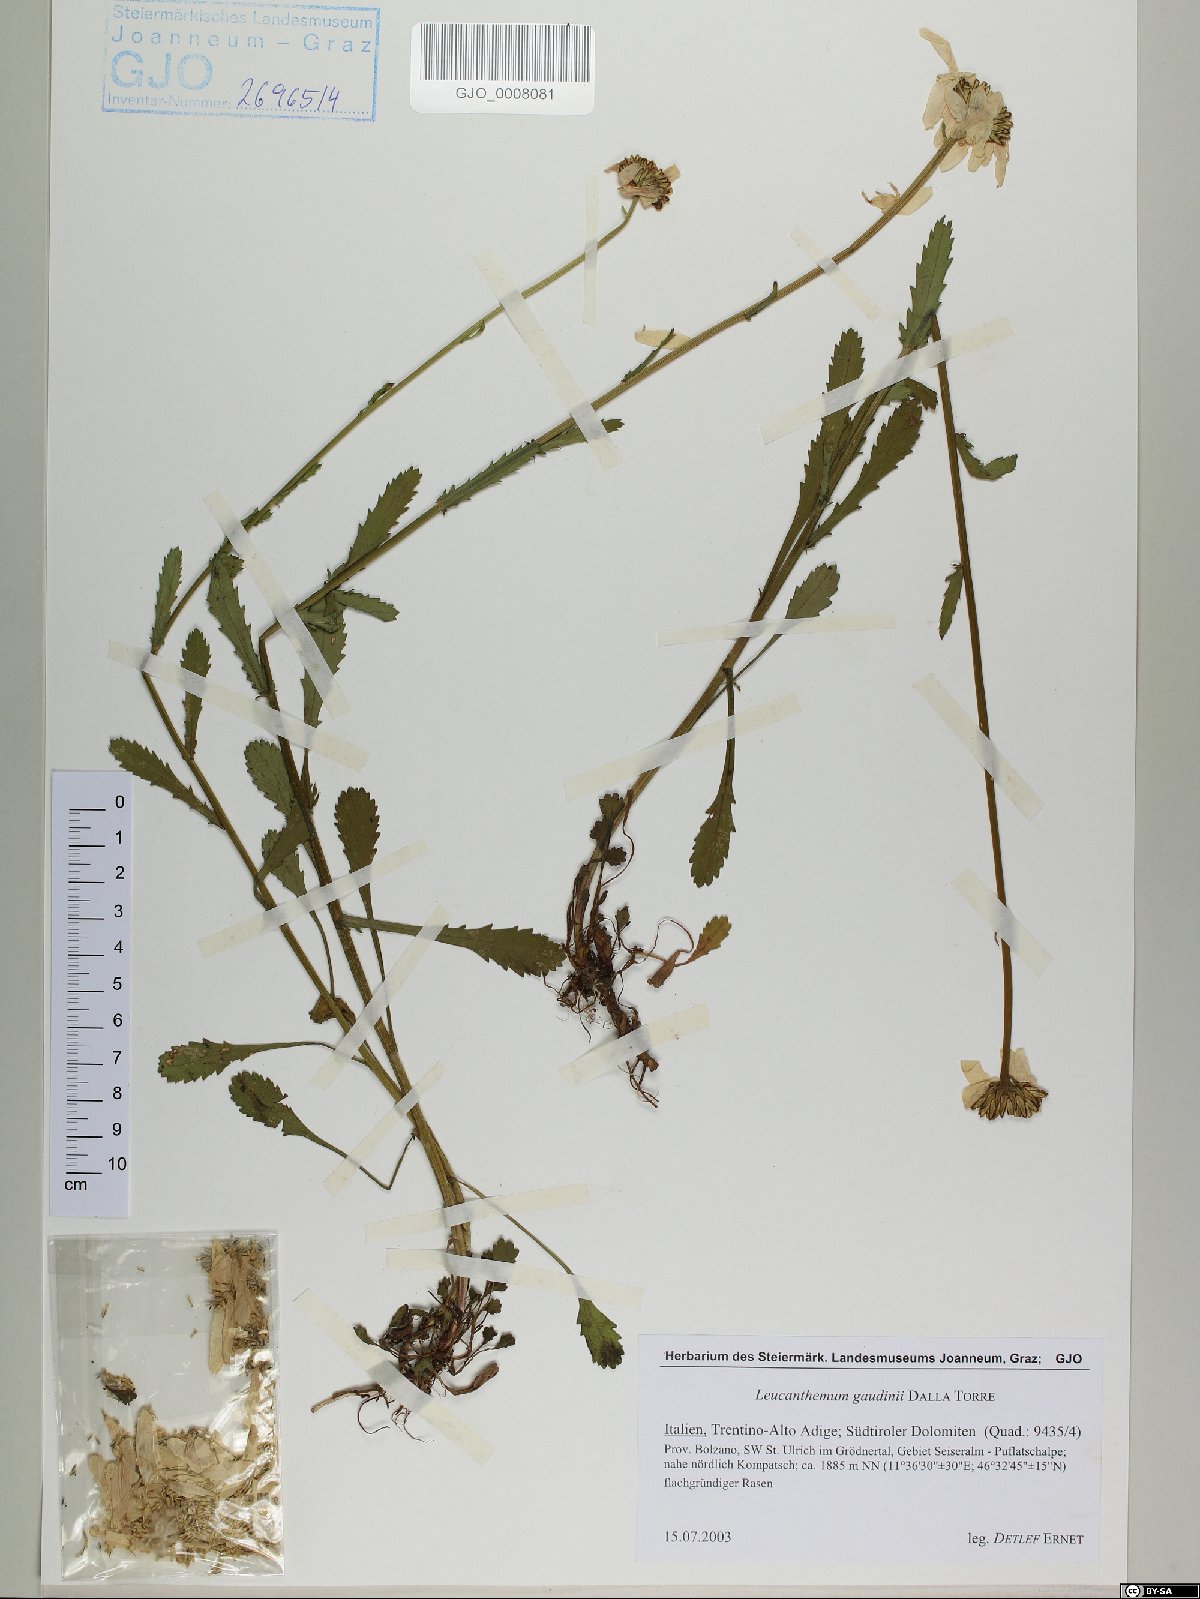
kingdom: Plantae
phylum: Tracheophyta
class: Magnoliopsida
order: Asterales
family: Asteraceae
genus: Leucanthemum
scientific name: Leucanthemum gaudinii
